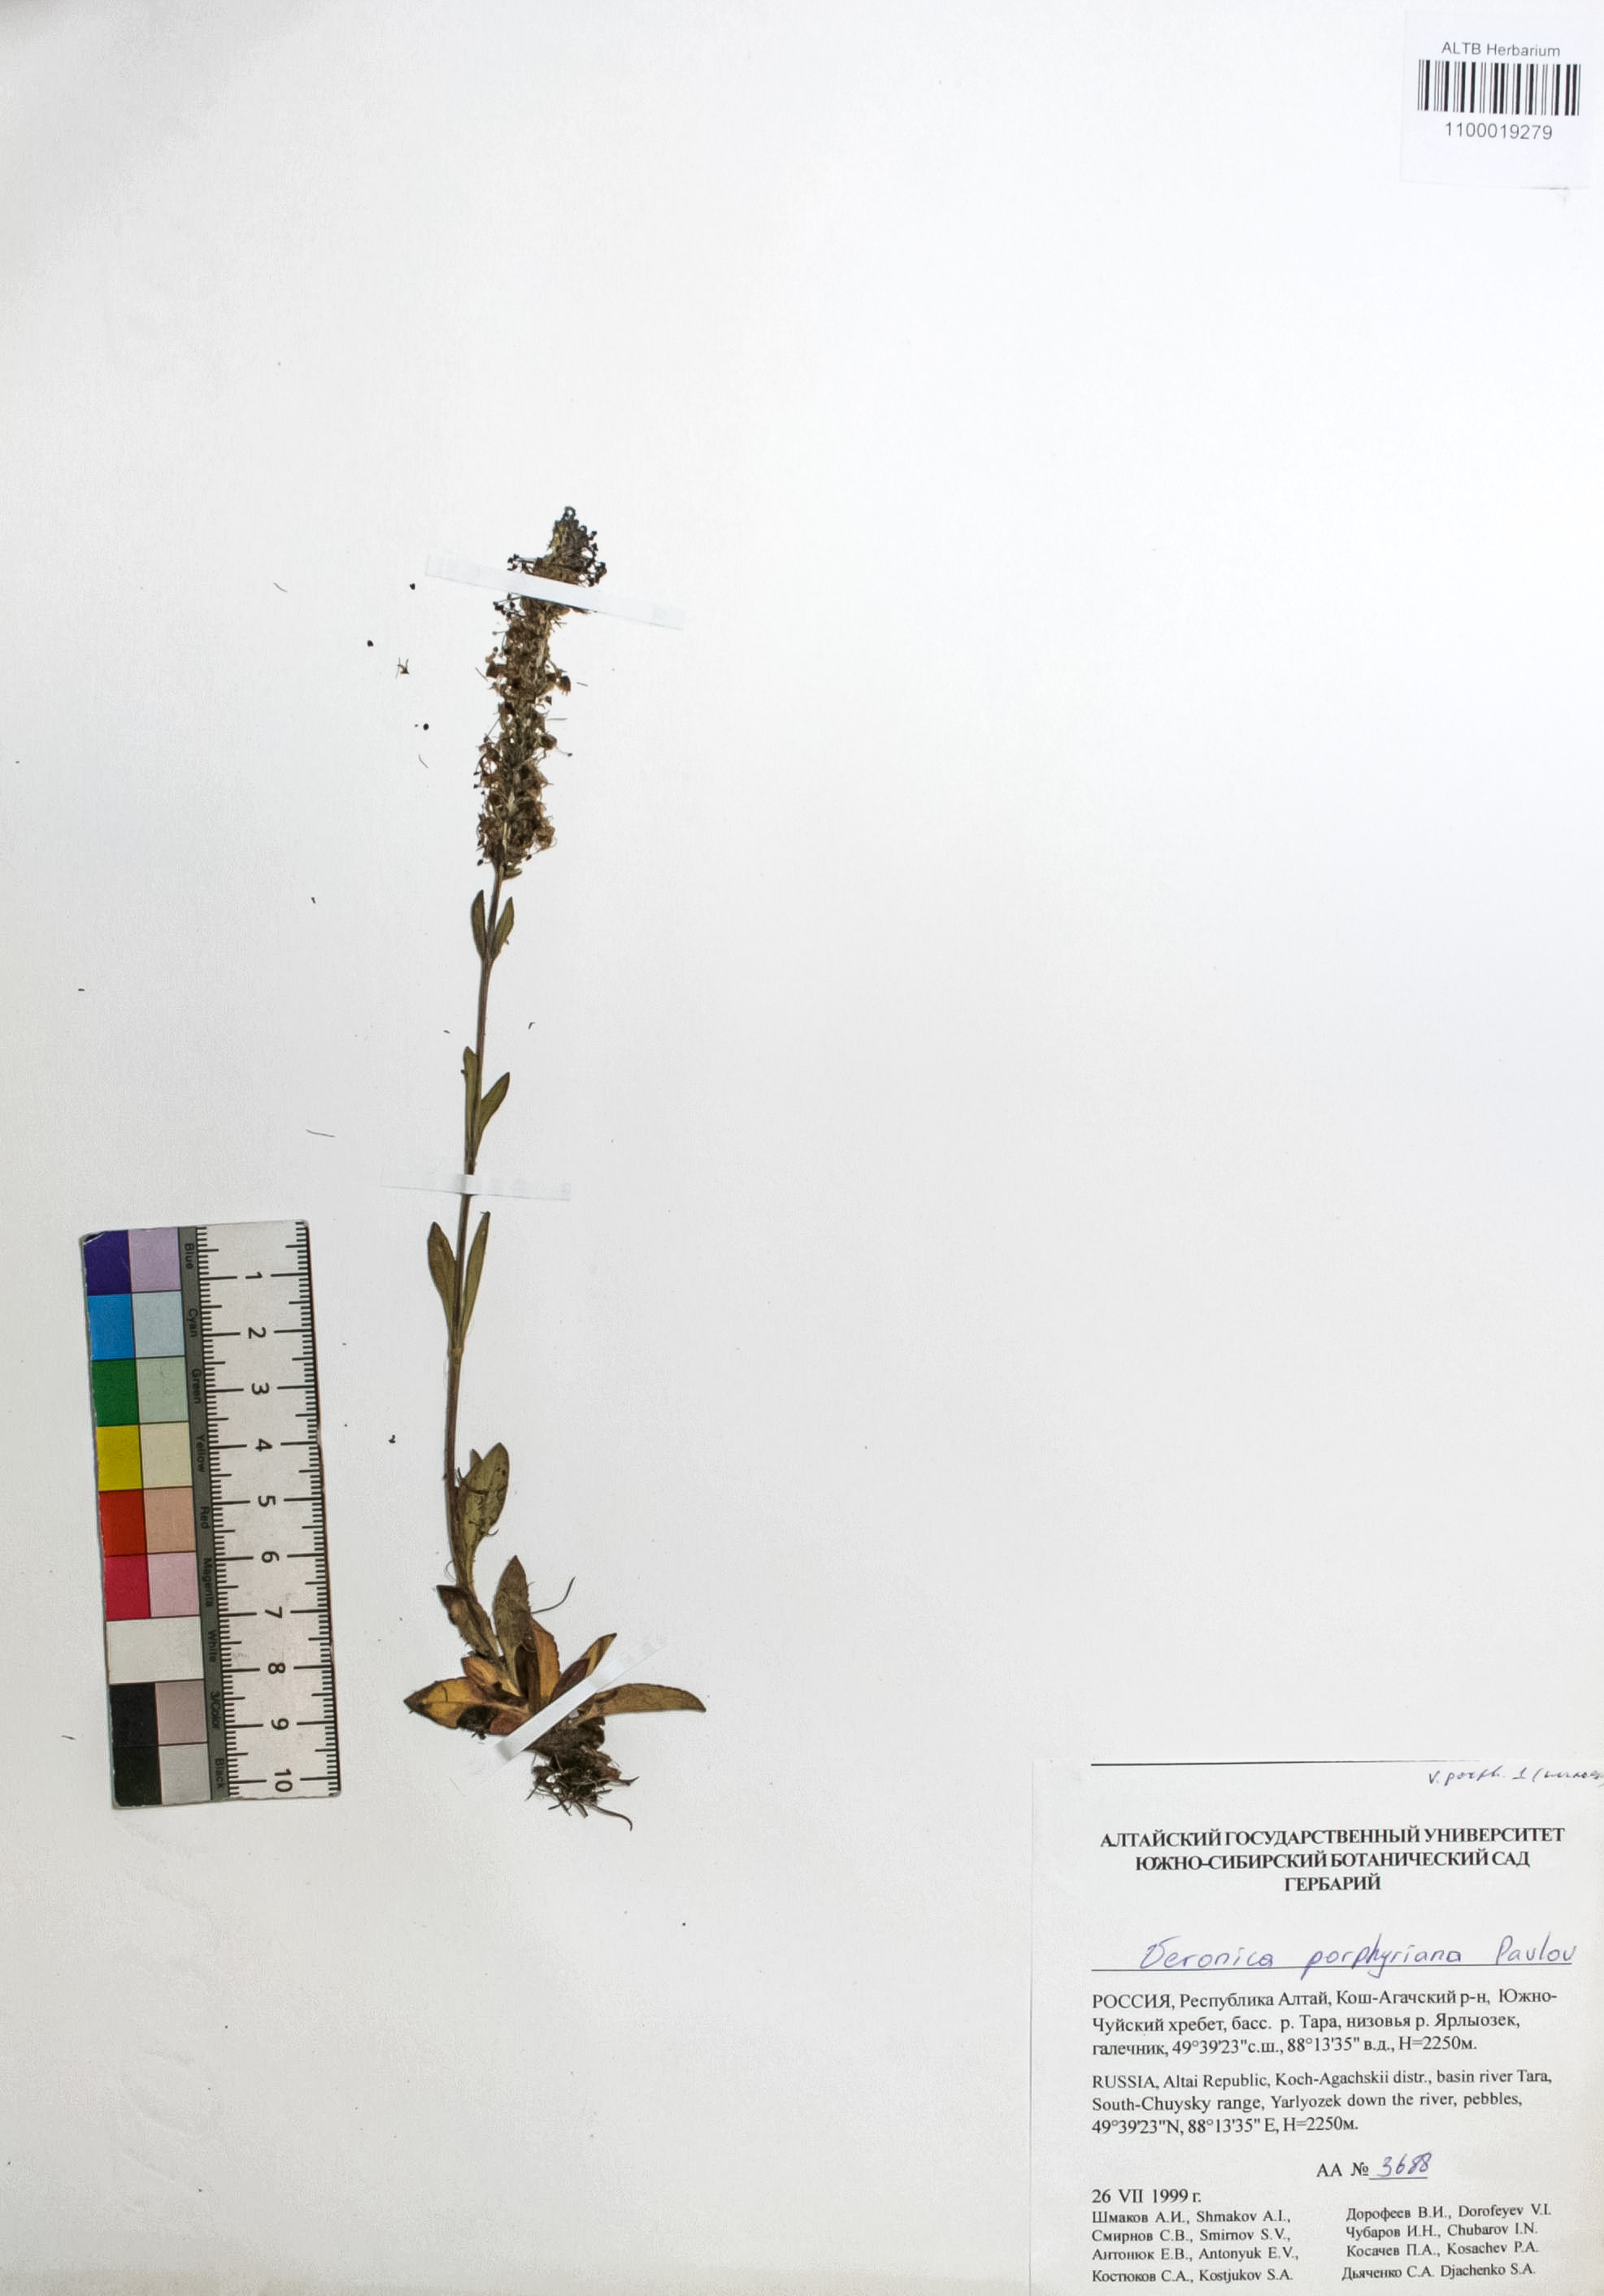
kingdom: Plantae
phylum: Tracheophyta
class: Magnoliopsida
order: Lamiales
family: Plantaginaceae
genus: Veronica
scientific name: Veronica porphyriana
